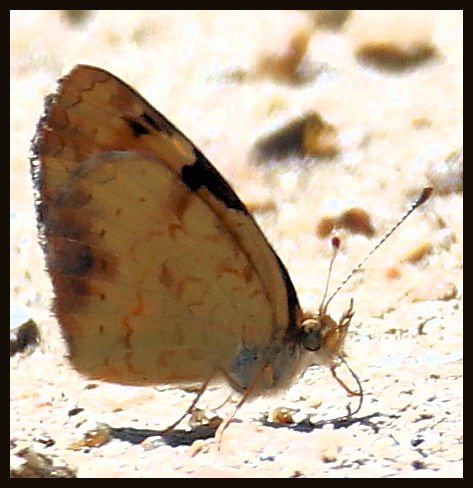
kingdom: Animalia
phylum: Arthropoda
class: Insecta
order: Lepidoptera
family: Nymphalidae
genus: Phyciodes
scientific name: Phyciodes tharos
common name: Northern Crescent
